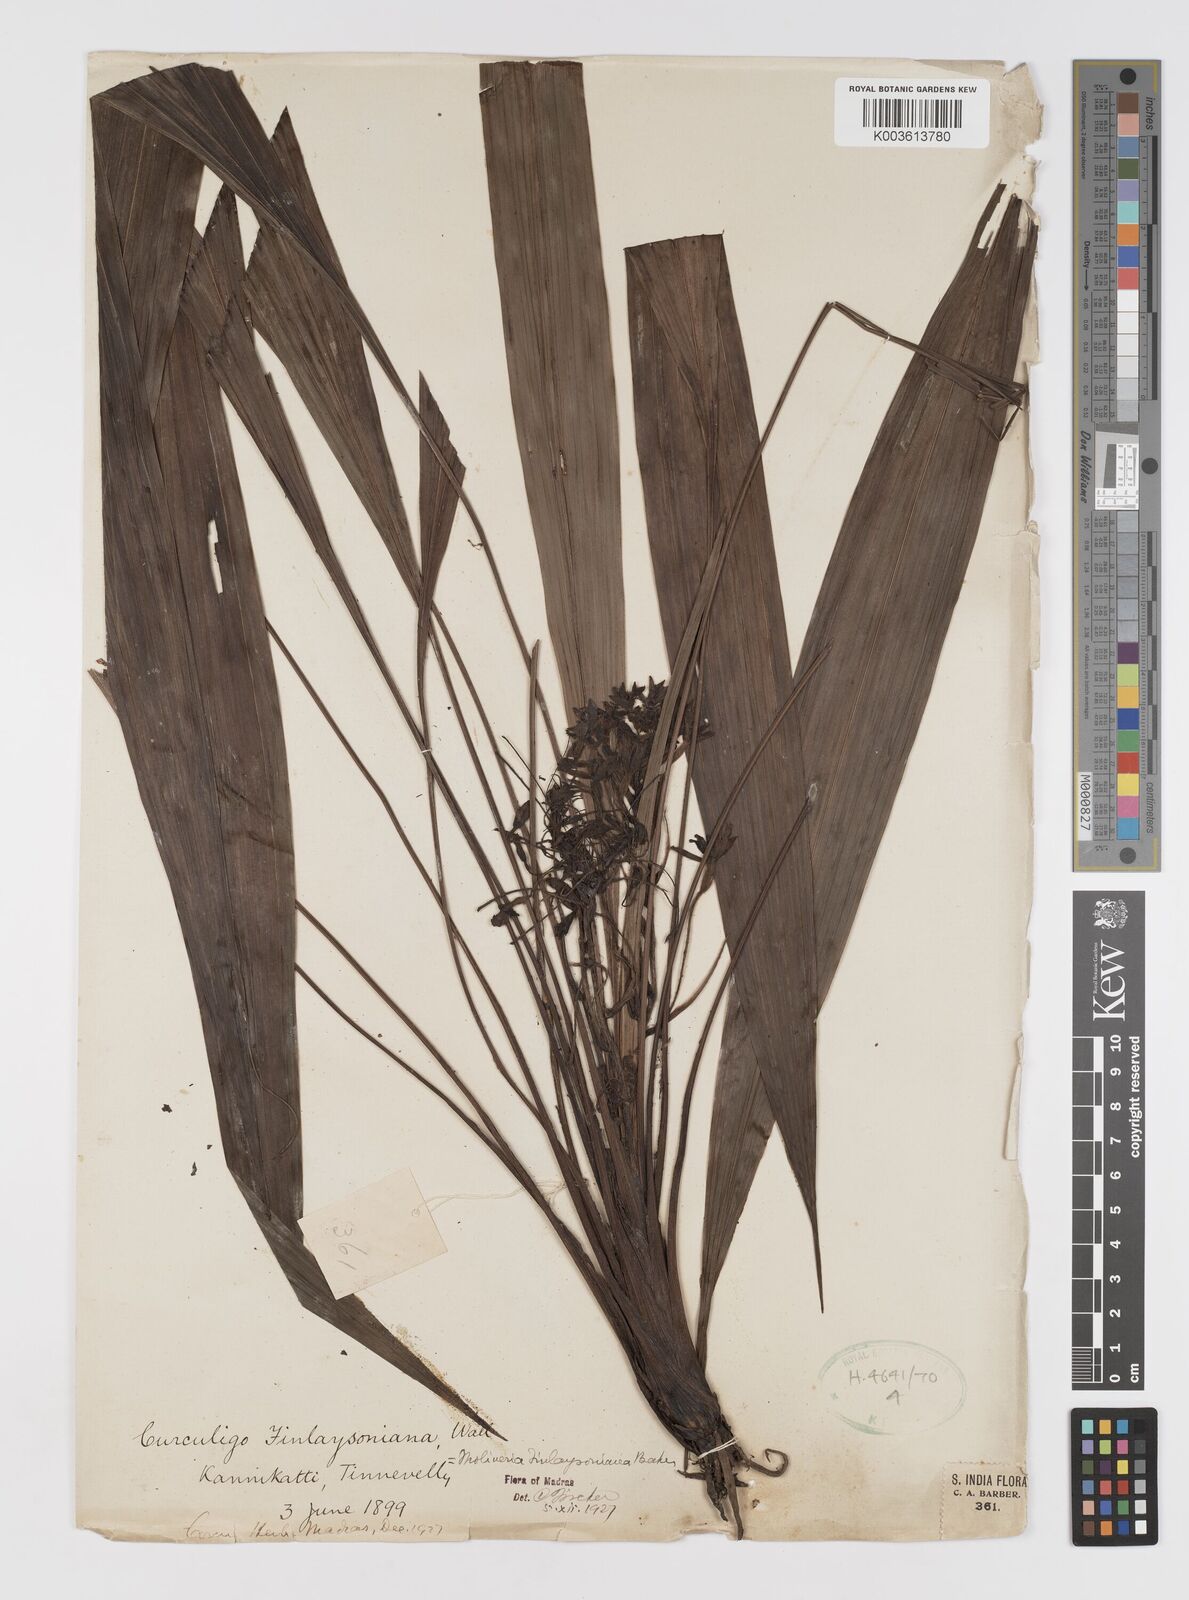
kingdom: Plantae
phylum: Tracheophyta
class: Liliopsida
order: Asparagales
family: Hypoxidaceae
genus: Curculigo
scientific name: Curculigo trichocarpa
